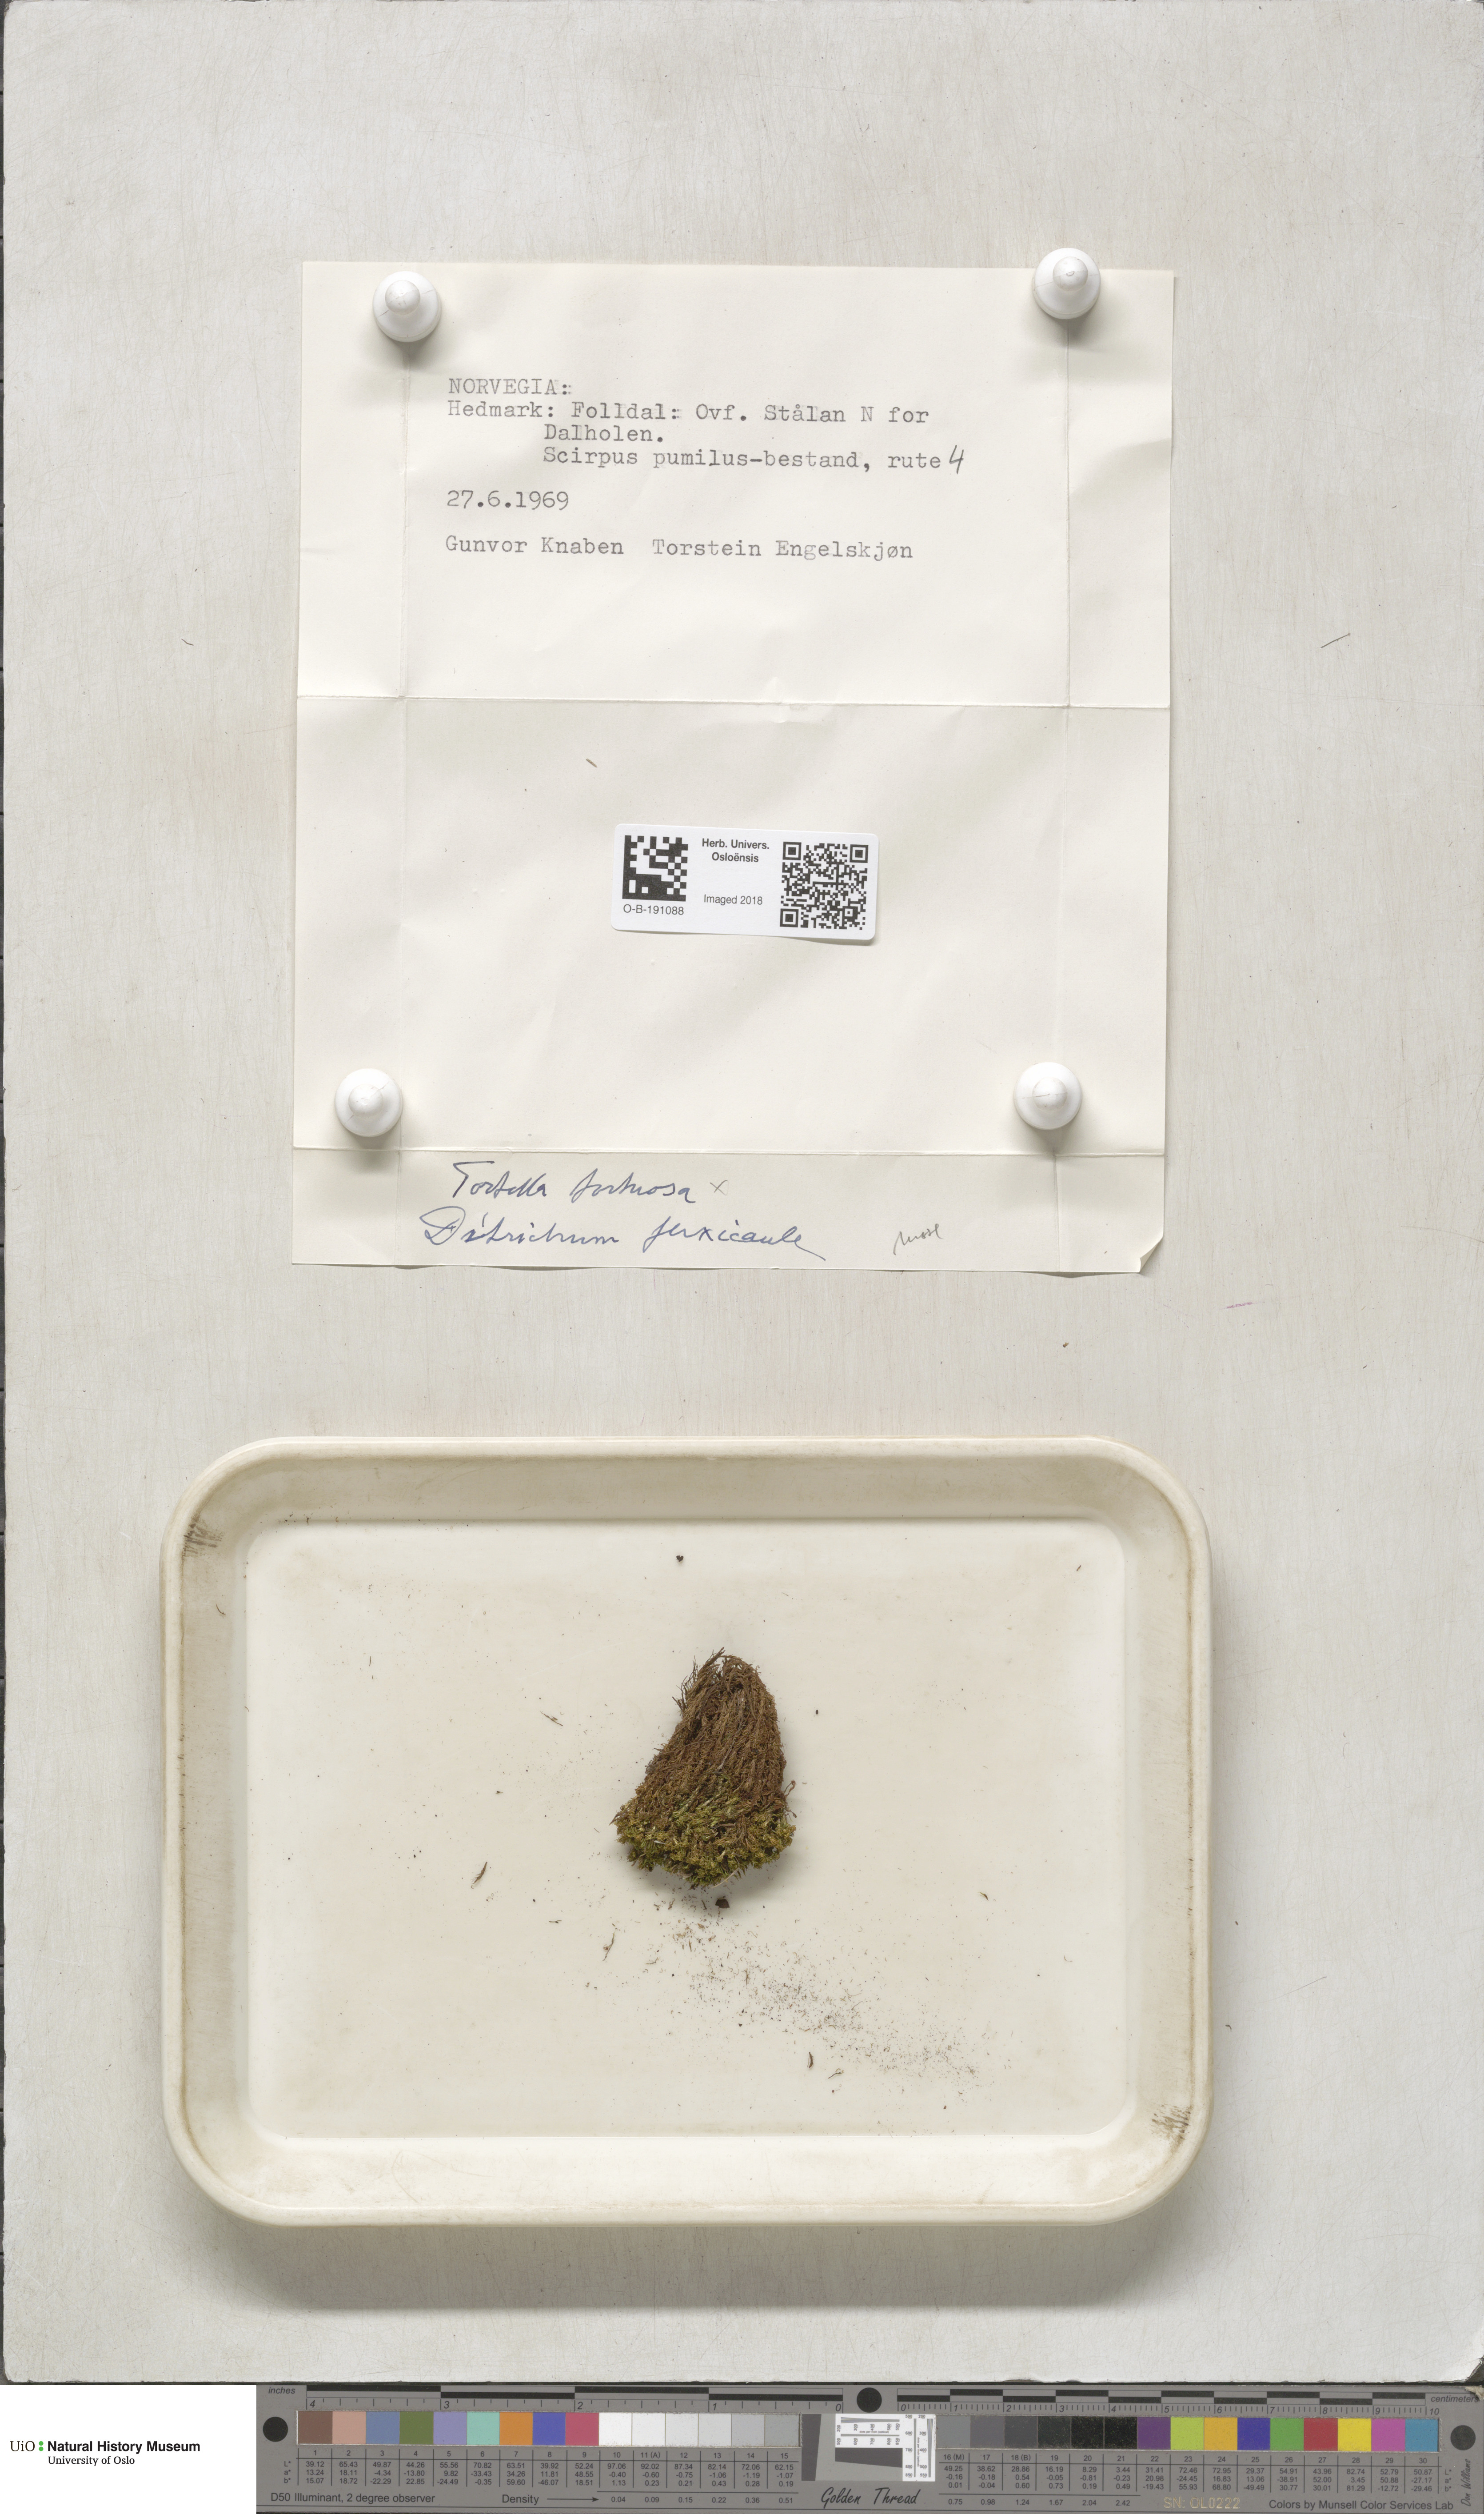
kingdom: Plantae
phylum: Bryophyta
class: Bryopsida
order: Pottiales
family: Pottiaceae
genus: Tortella
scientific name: Tortella tortuosa
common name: Frizzled crisp moss
